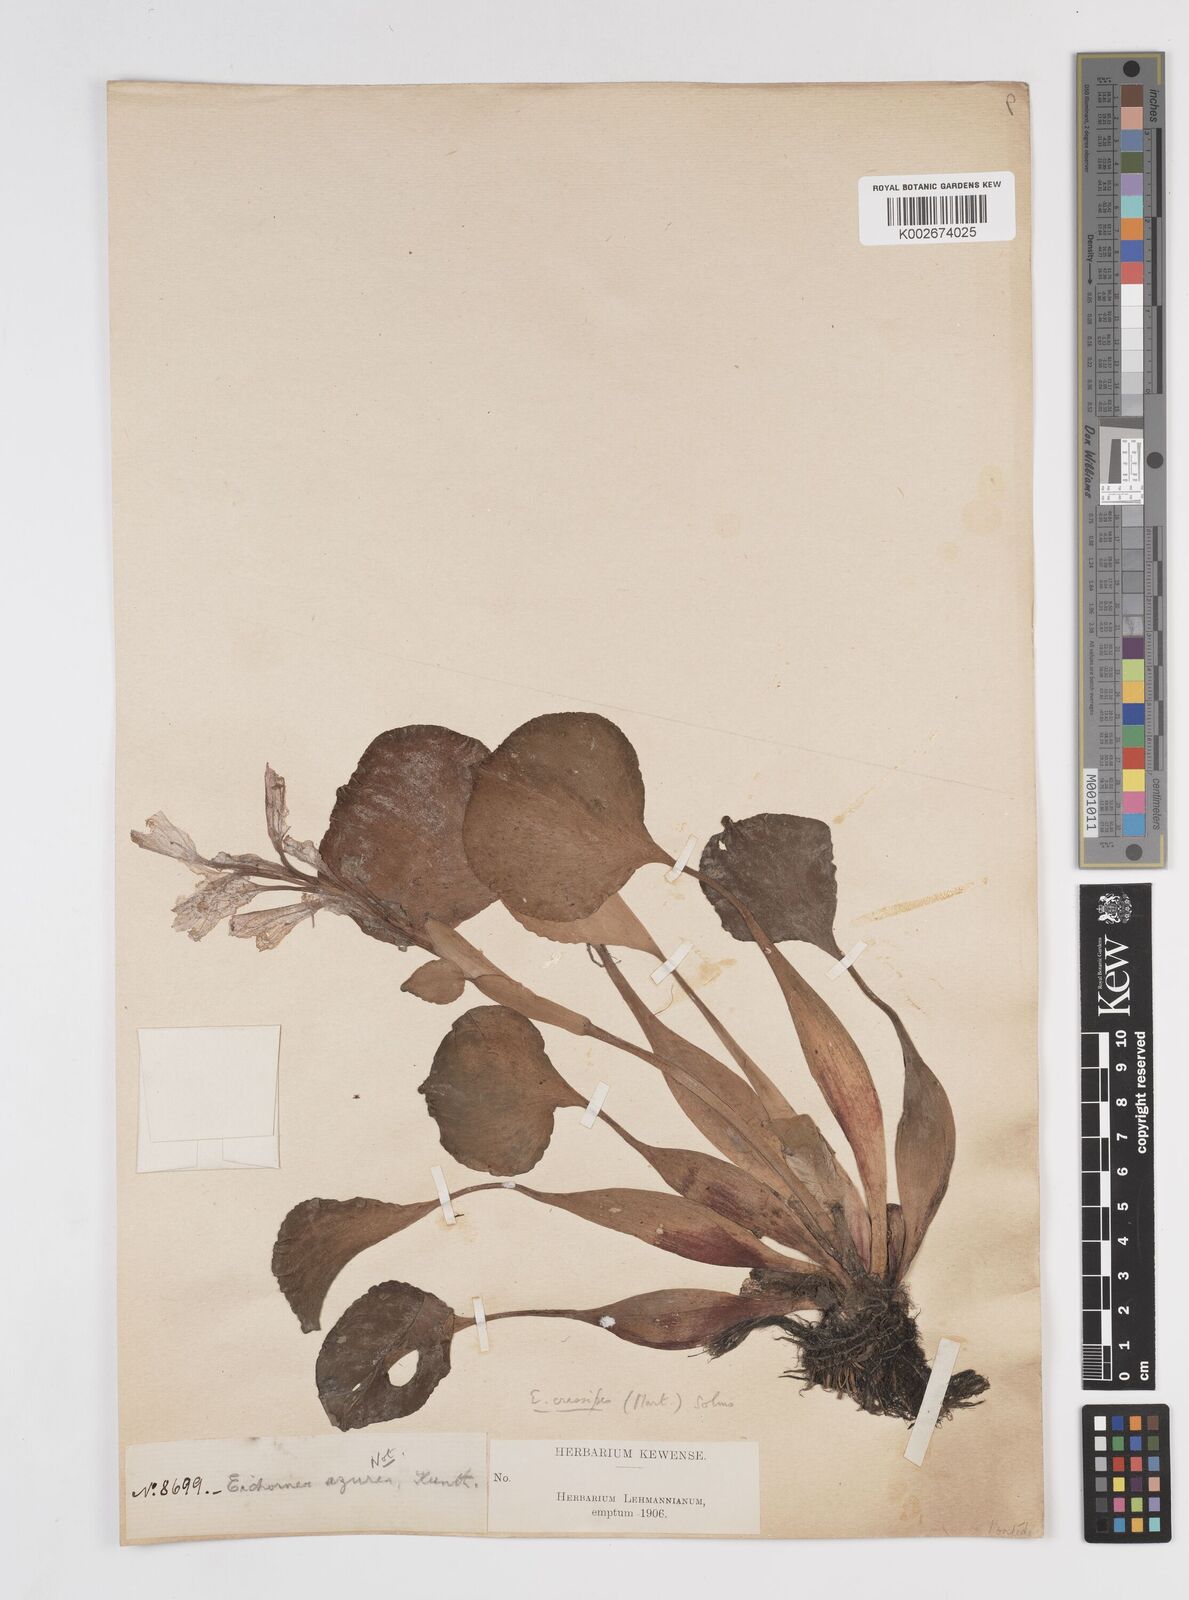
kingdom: Plantae
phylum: Tracheophyta
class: Liliopsida
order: Commelinales
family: Pontederiaceae
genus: Pontederia
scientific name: Pontederia crassipes
